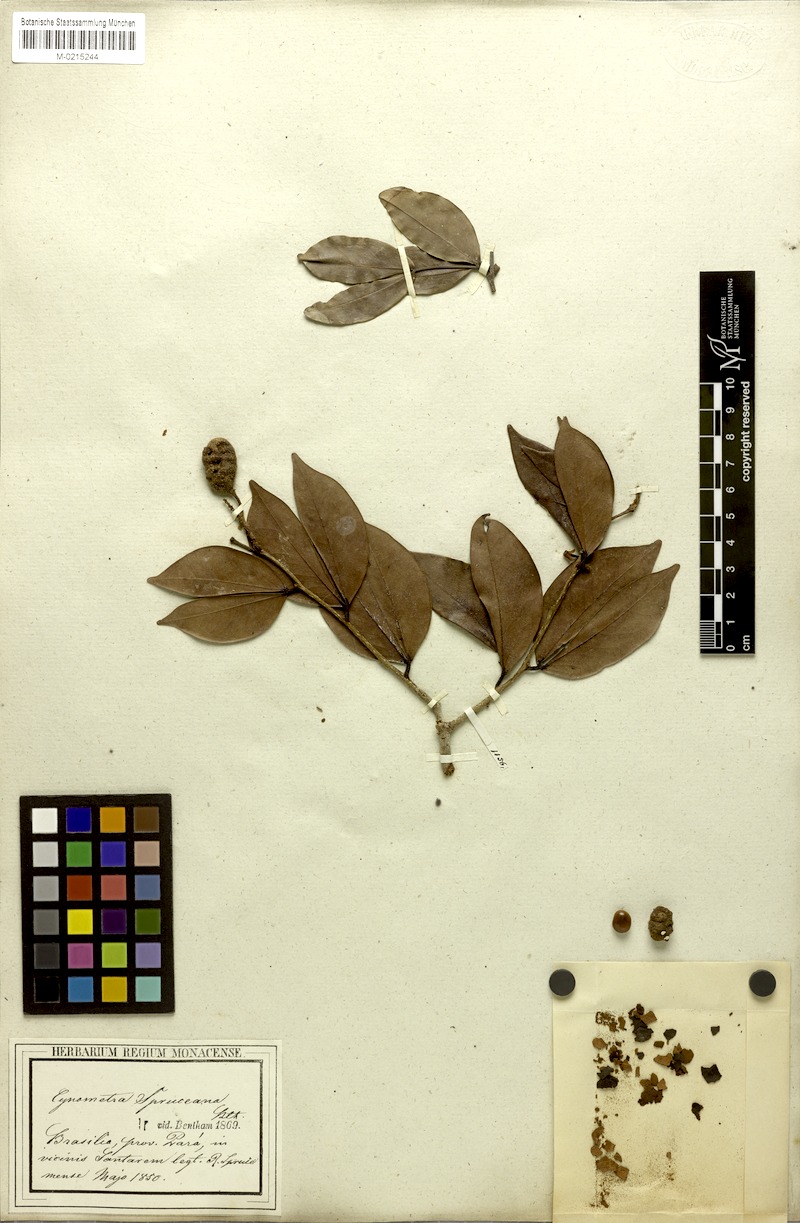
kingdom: Plantae
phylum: Tracheophyta
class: Magnoliopsida
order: Fabales
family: Fabaceae
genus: Hymenaea
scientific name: Hymenaea martiana
